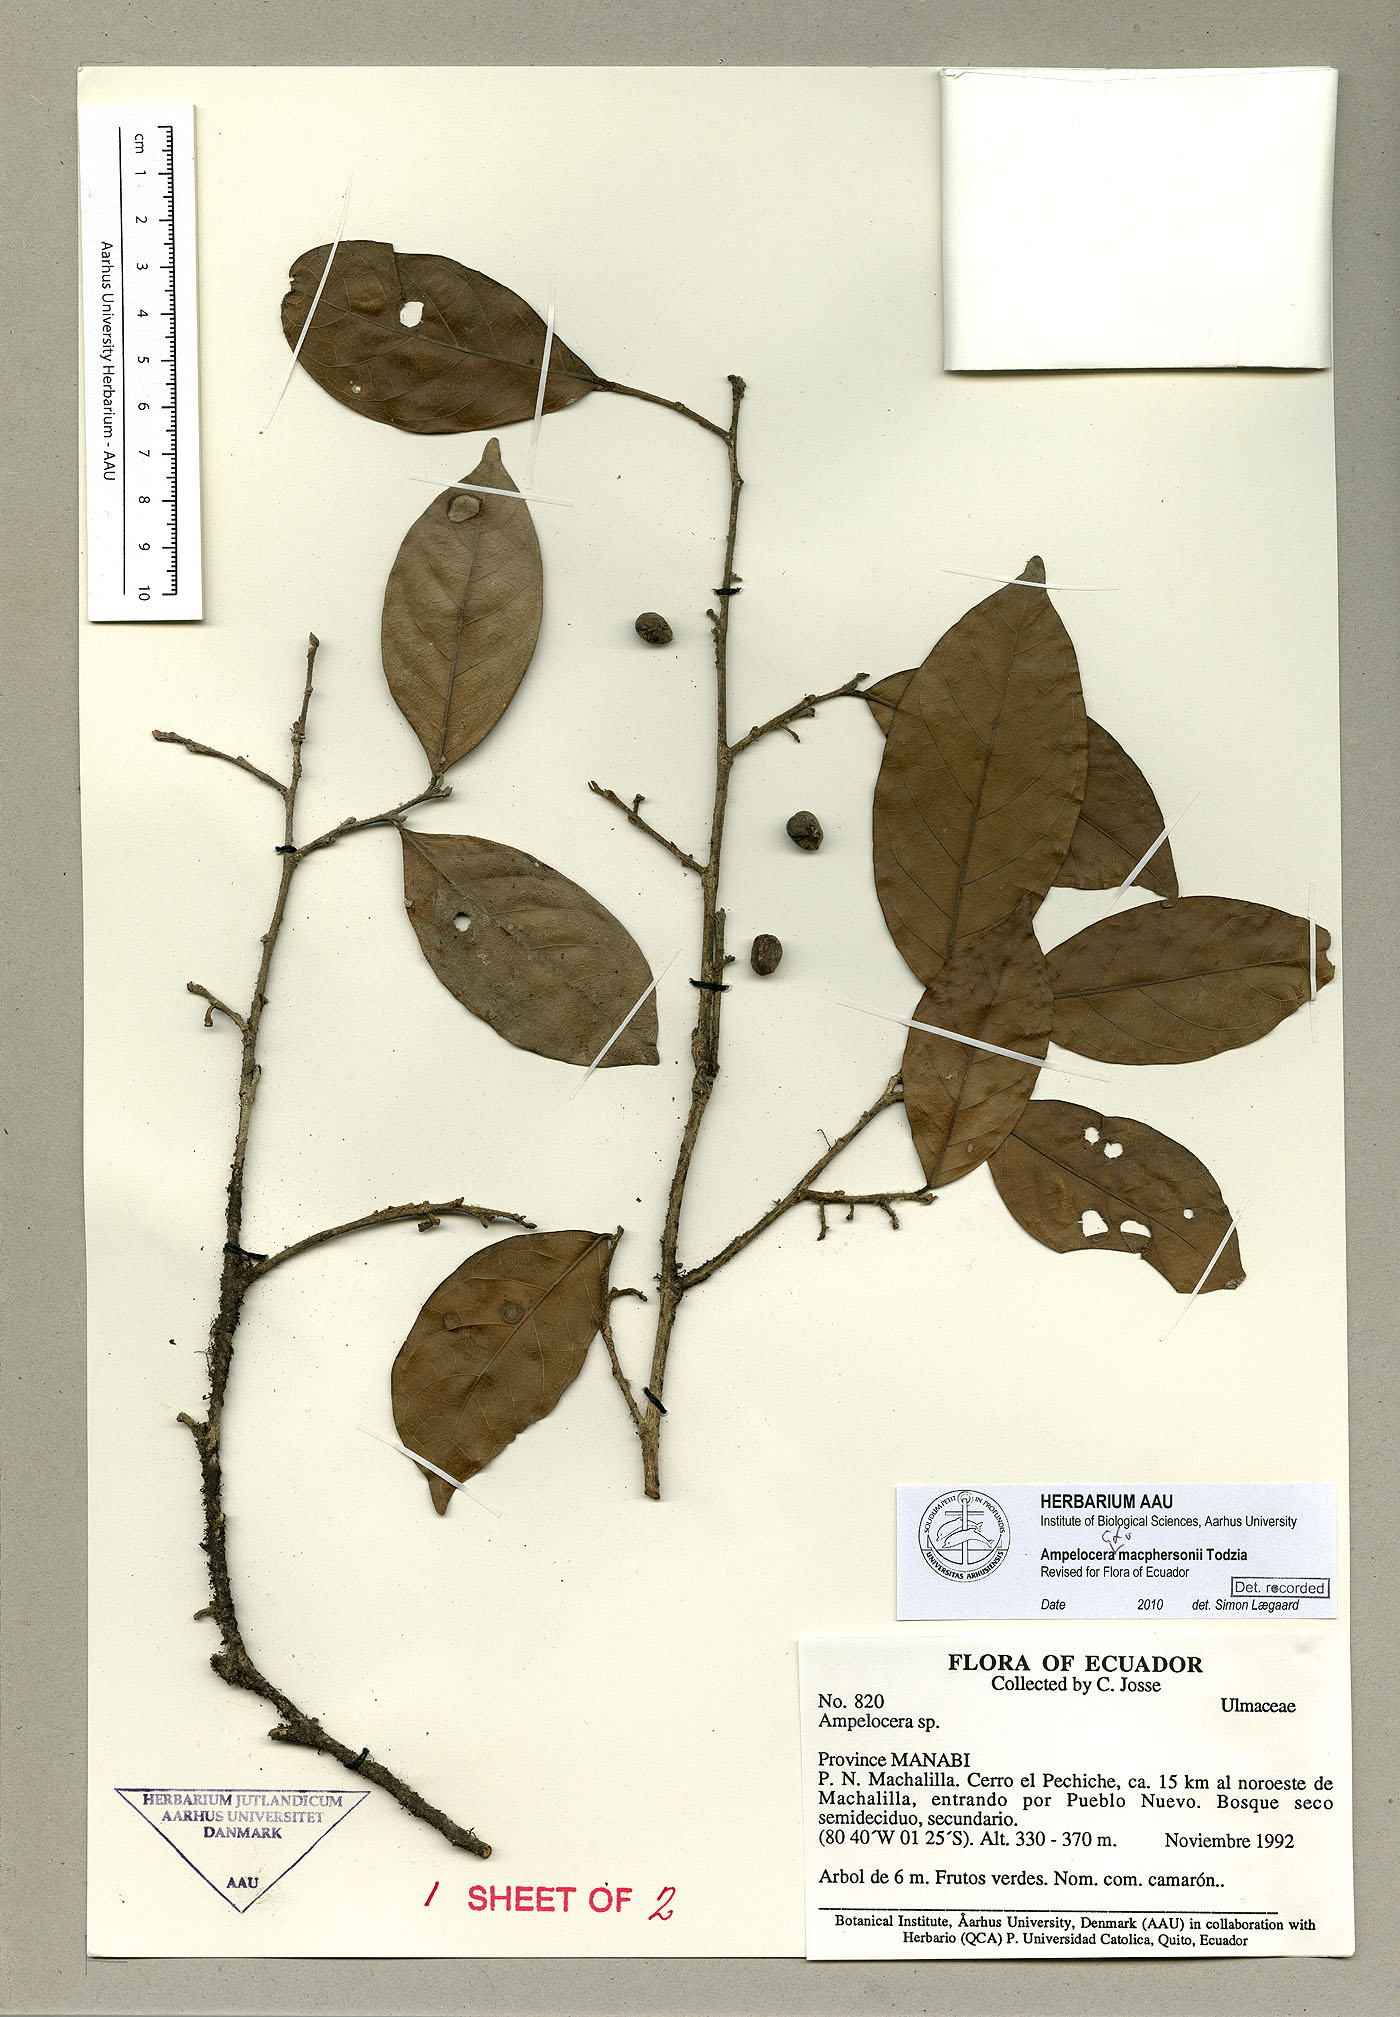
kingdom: Plantae
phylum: Tracheophyta
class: Magnoliopsida
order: Rosales
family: Cannabaceae
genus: Ampelocera
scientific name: Ampelocera macphersonii
